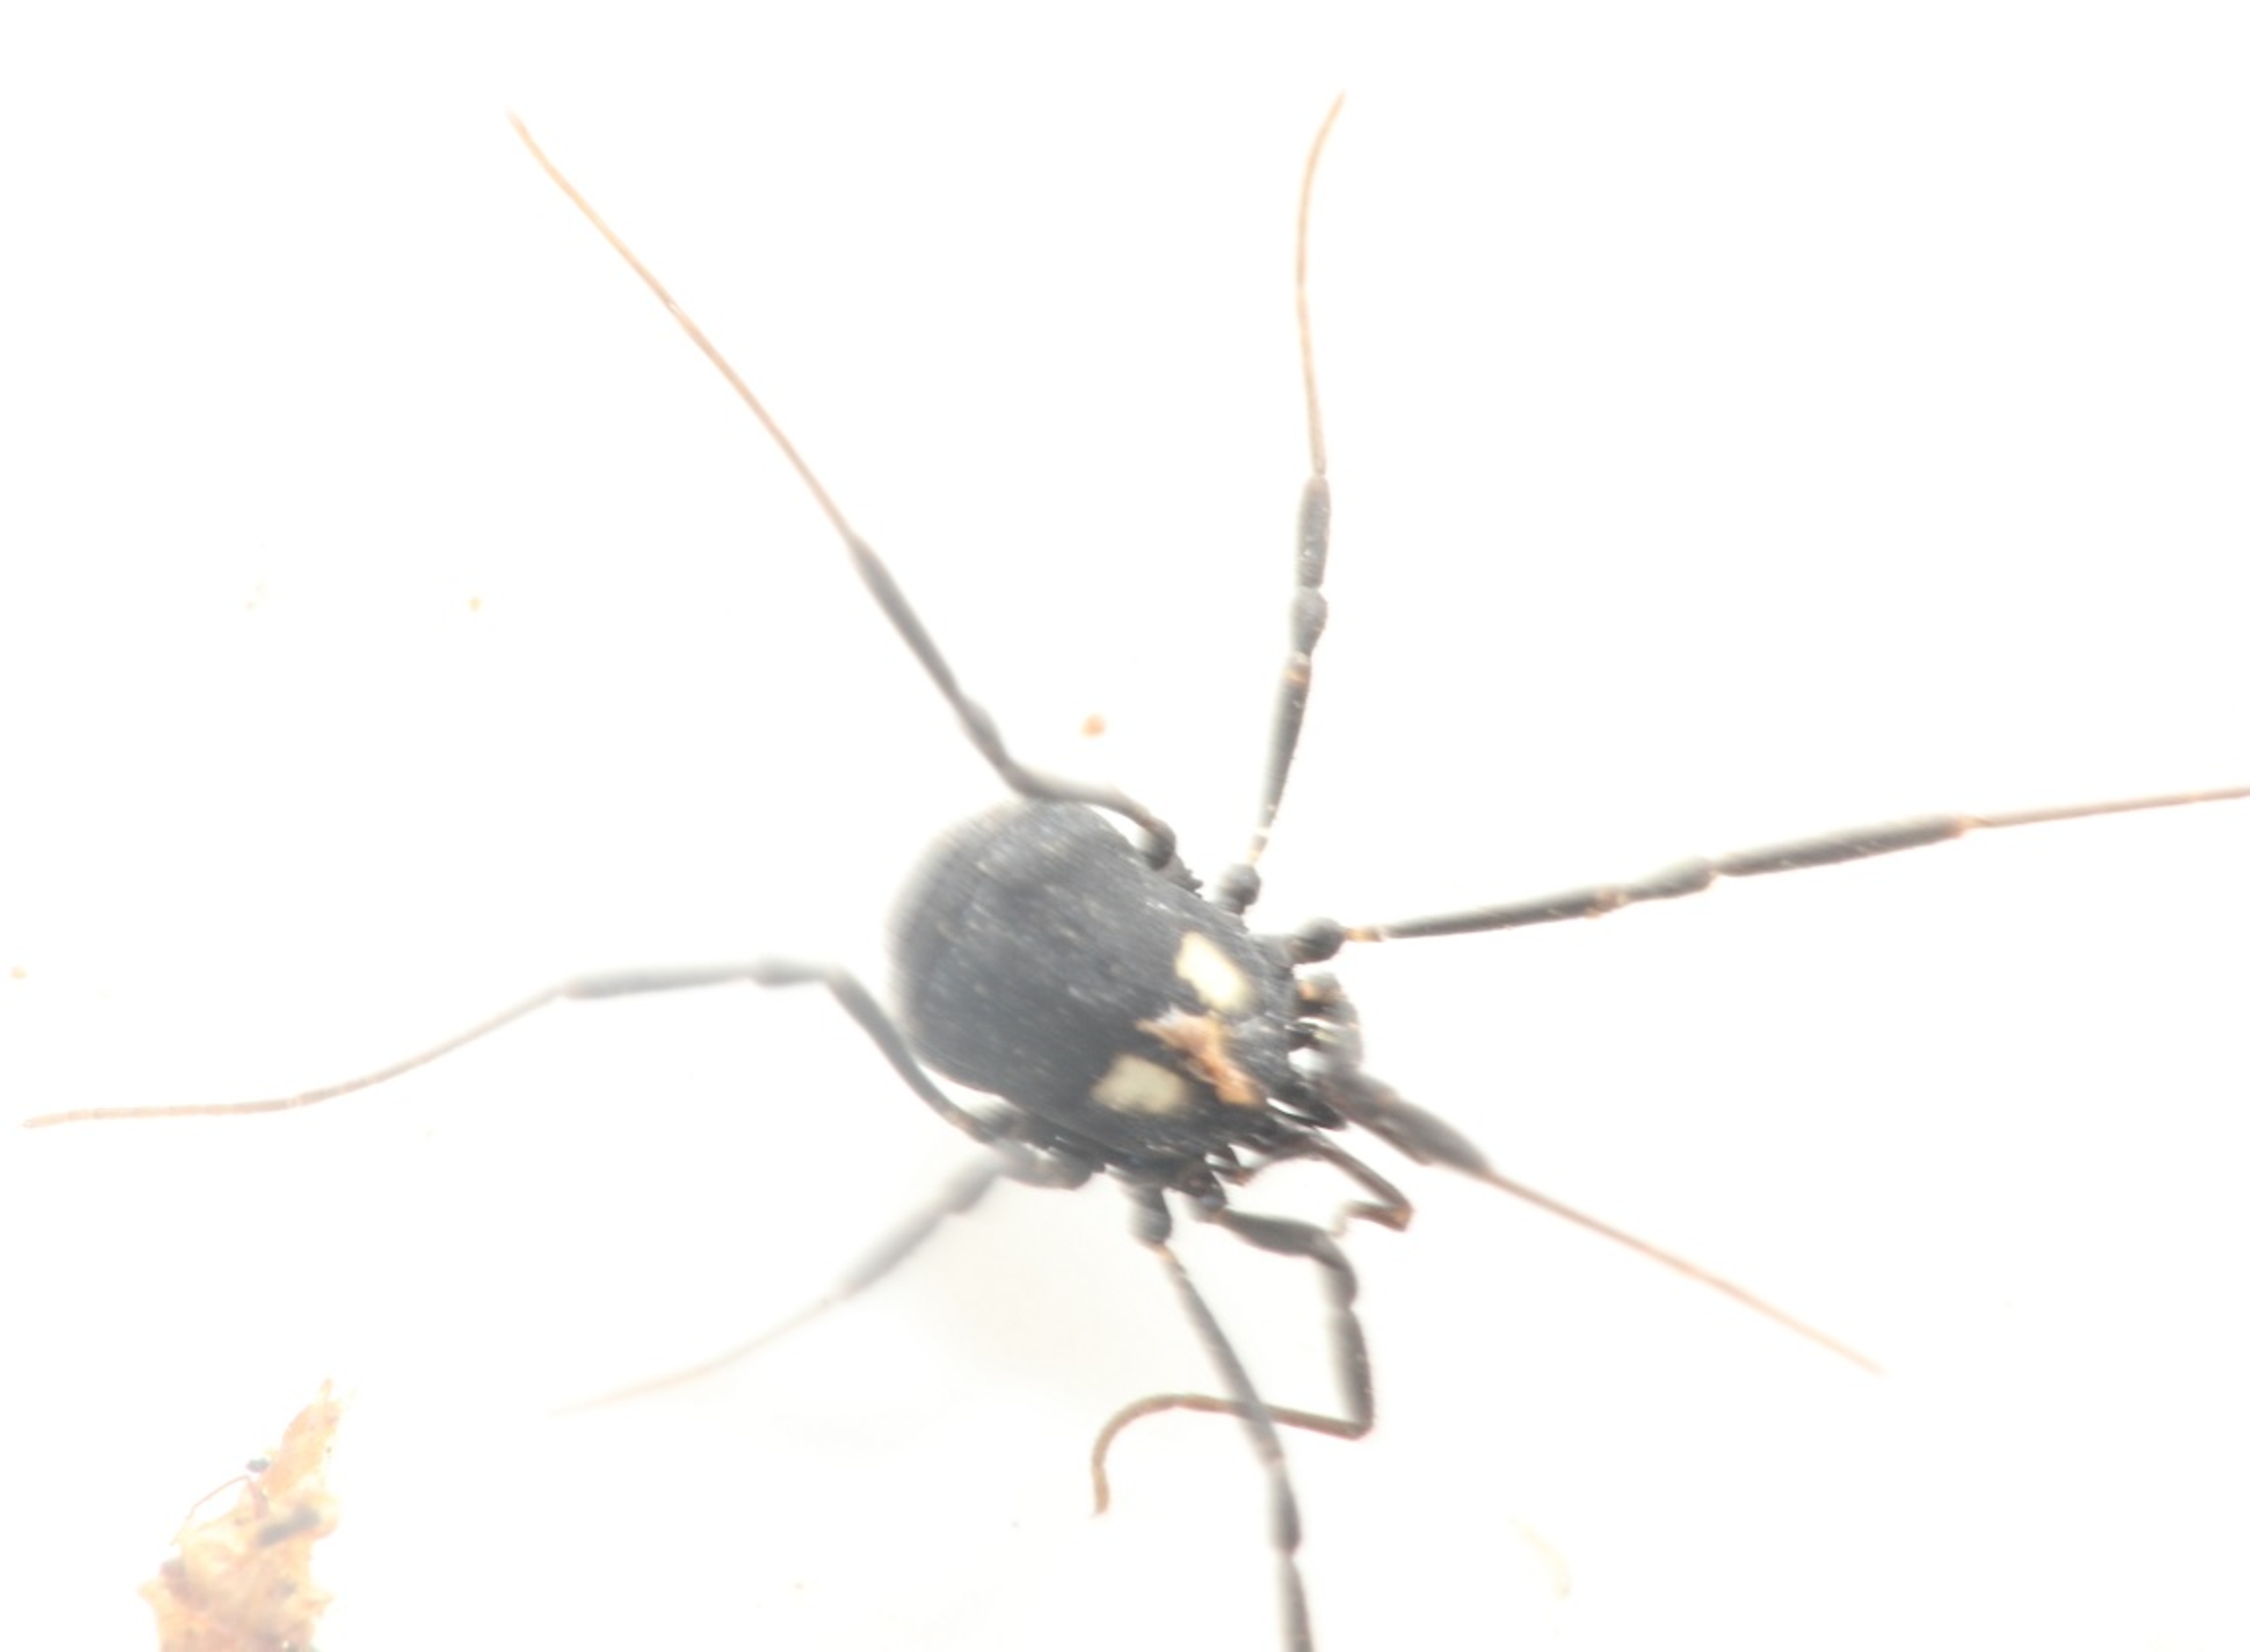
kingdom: Animalia
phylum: Arthropoda
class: Arachnida
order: Opiliones
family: Nemastomatidae
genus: Nemastoma
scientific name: Nemastoma lugubre
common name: Østlig dødningehovedmejer
